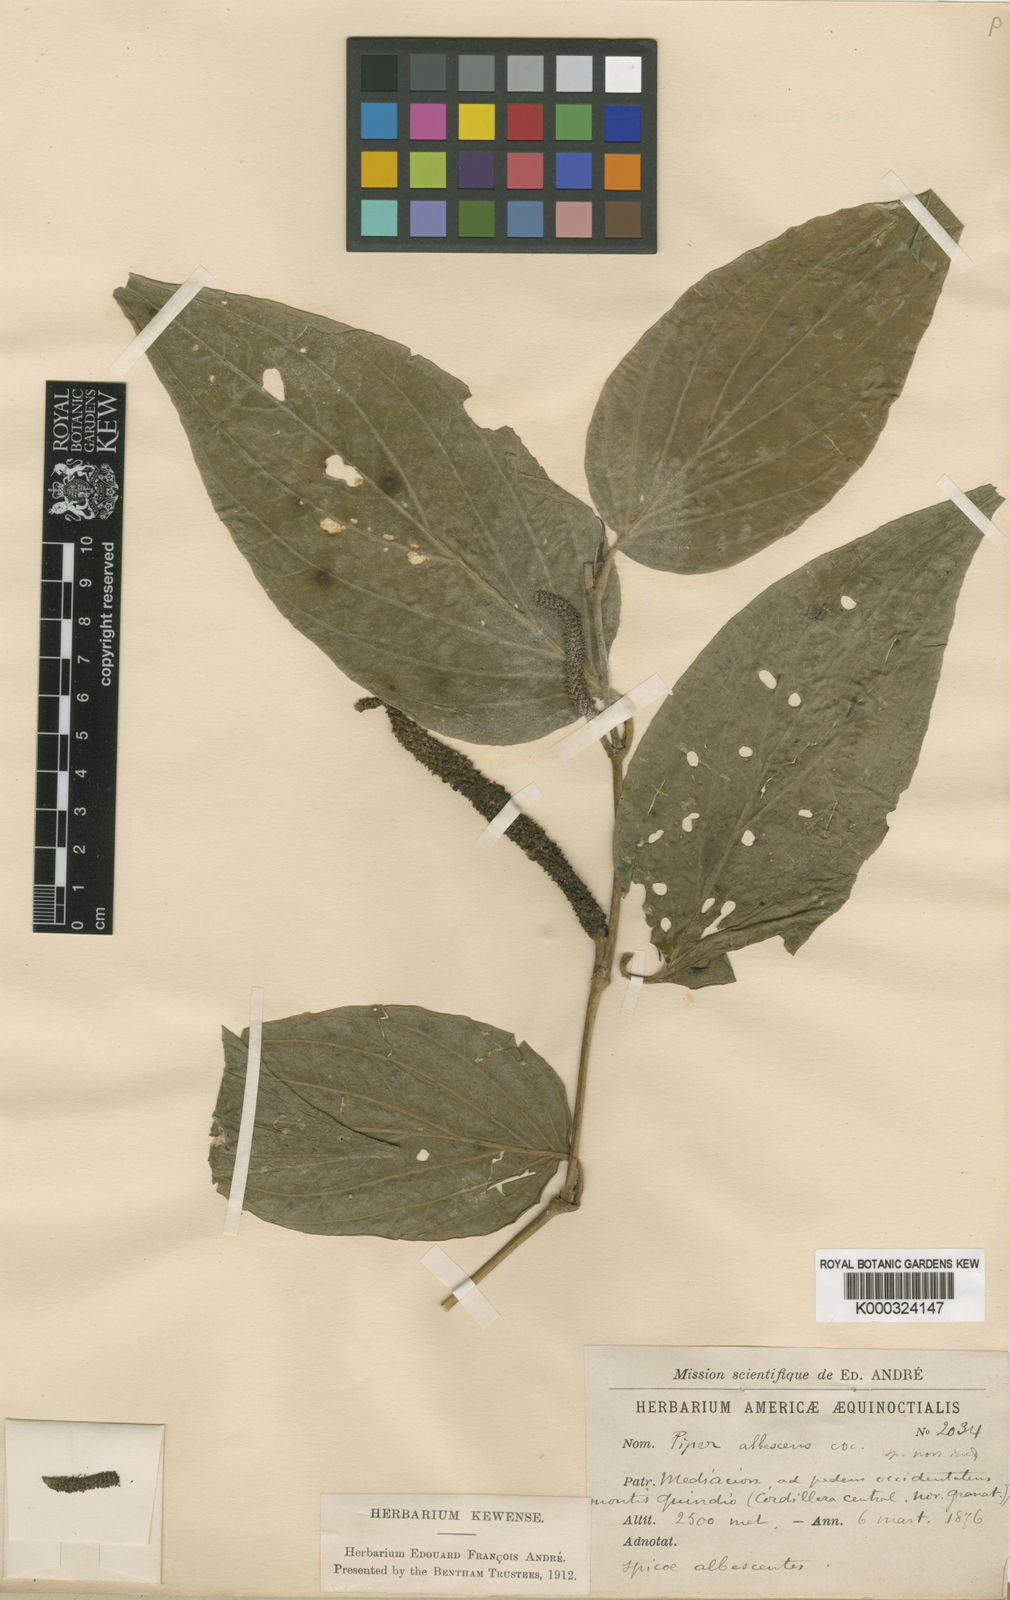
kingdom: Plantae
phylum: Tracheophyta
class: Magnoliopsida
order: Piperales
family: Piperaceae
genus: Piper
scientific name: Piper marequitense
